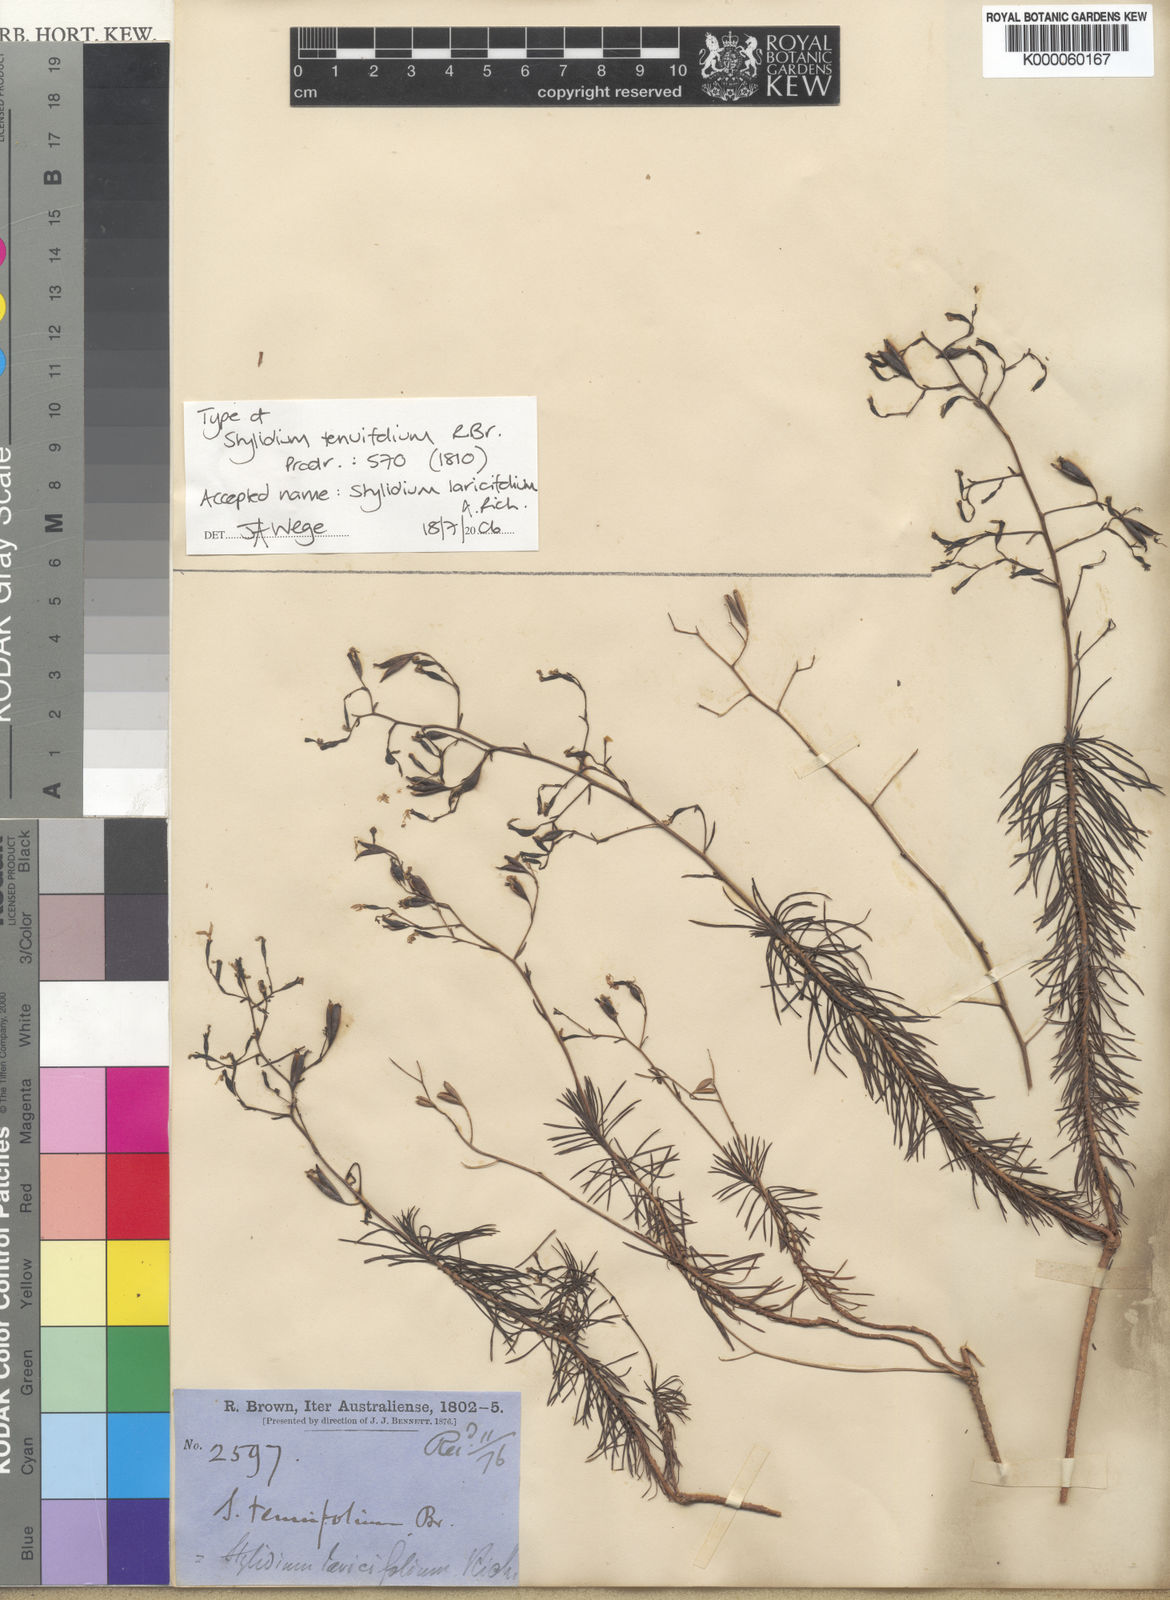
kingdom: Plantae
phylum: Tracheophyta
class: Magnoliopsida
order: Asterales
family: Stylidiaceae
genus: Stylidium
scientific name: Stylidium laricifolium
